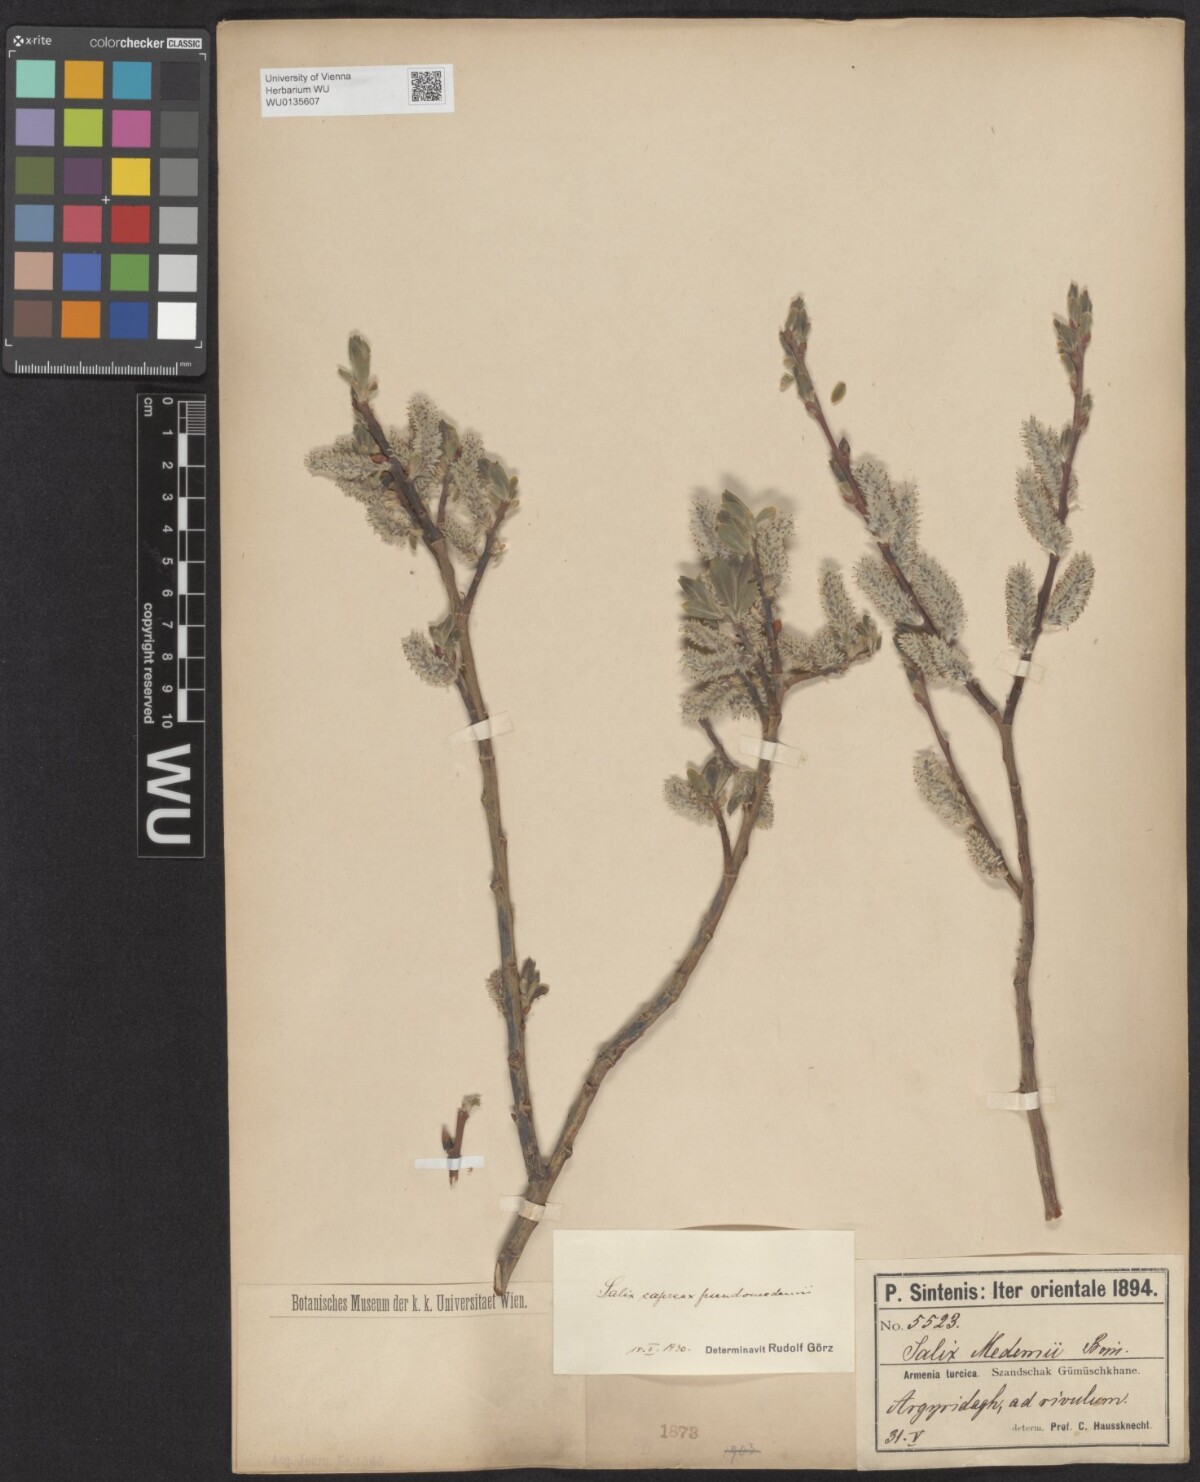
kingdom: Plantae
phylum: Tracheophyta
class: Magnoliopsida
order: Malpighiales
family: Salicaceae
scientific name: Salicaceae
